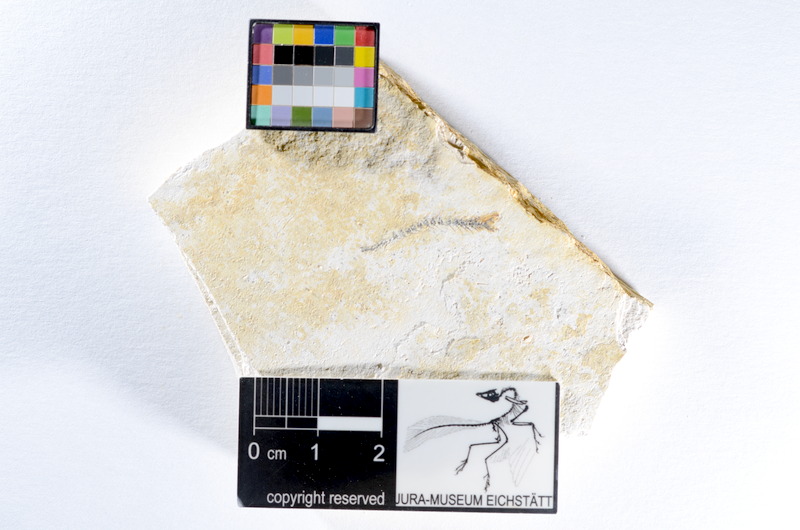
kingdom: Animalia
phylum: Chordata
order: Salmoniformes
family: Orthogonikleithridae
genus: Orthogonikleithrus
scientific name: Orthogonikleithrus hoelli
